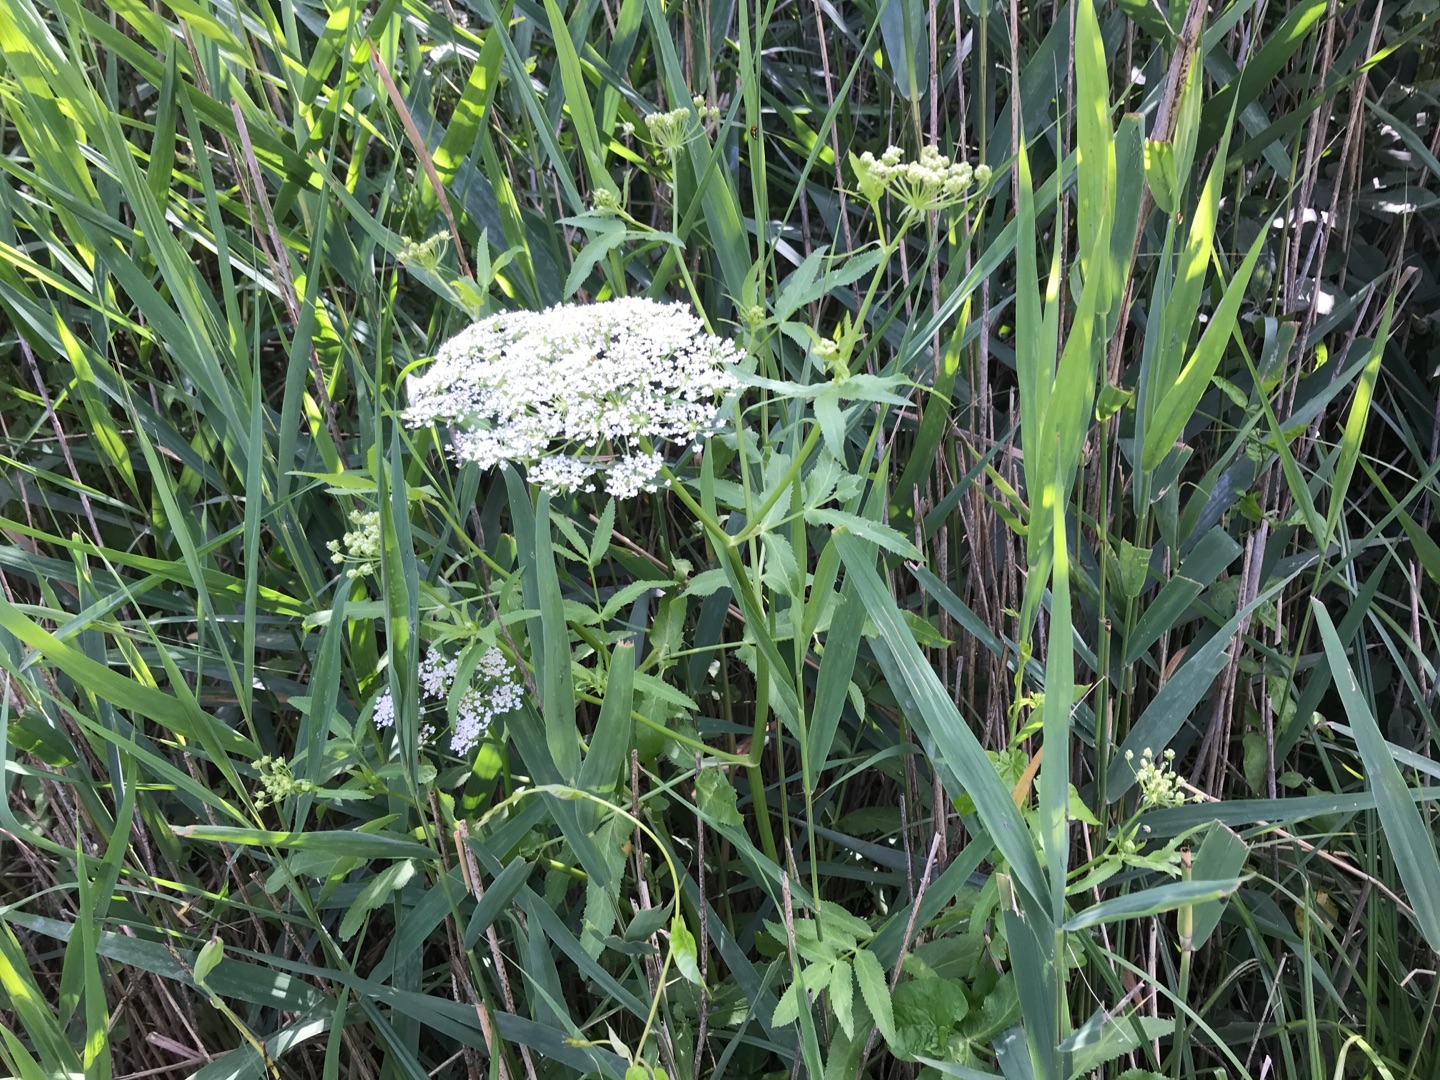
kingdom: Plantae
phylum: Tracheophyta
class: Magnoliopsida
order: Apiales
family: Apiaceae
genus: Sium
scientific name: Sium latifolium
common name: Bredbladet mærke
